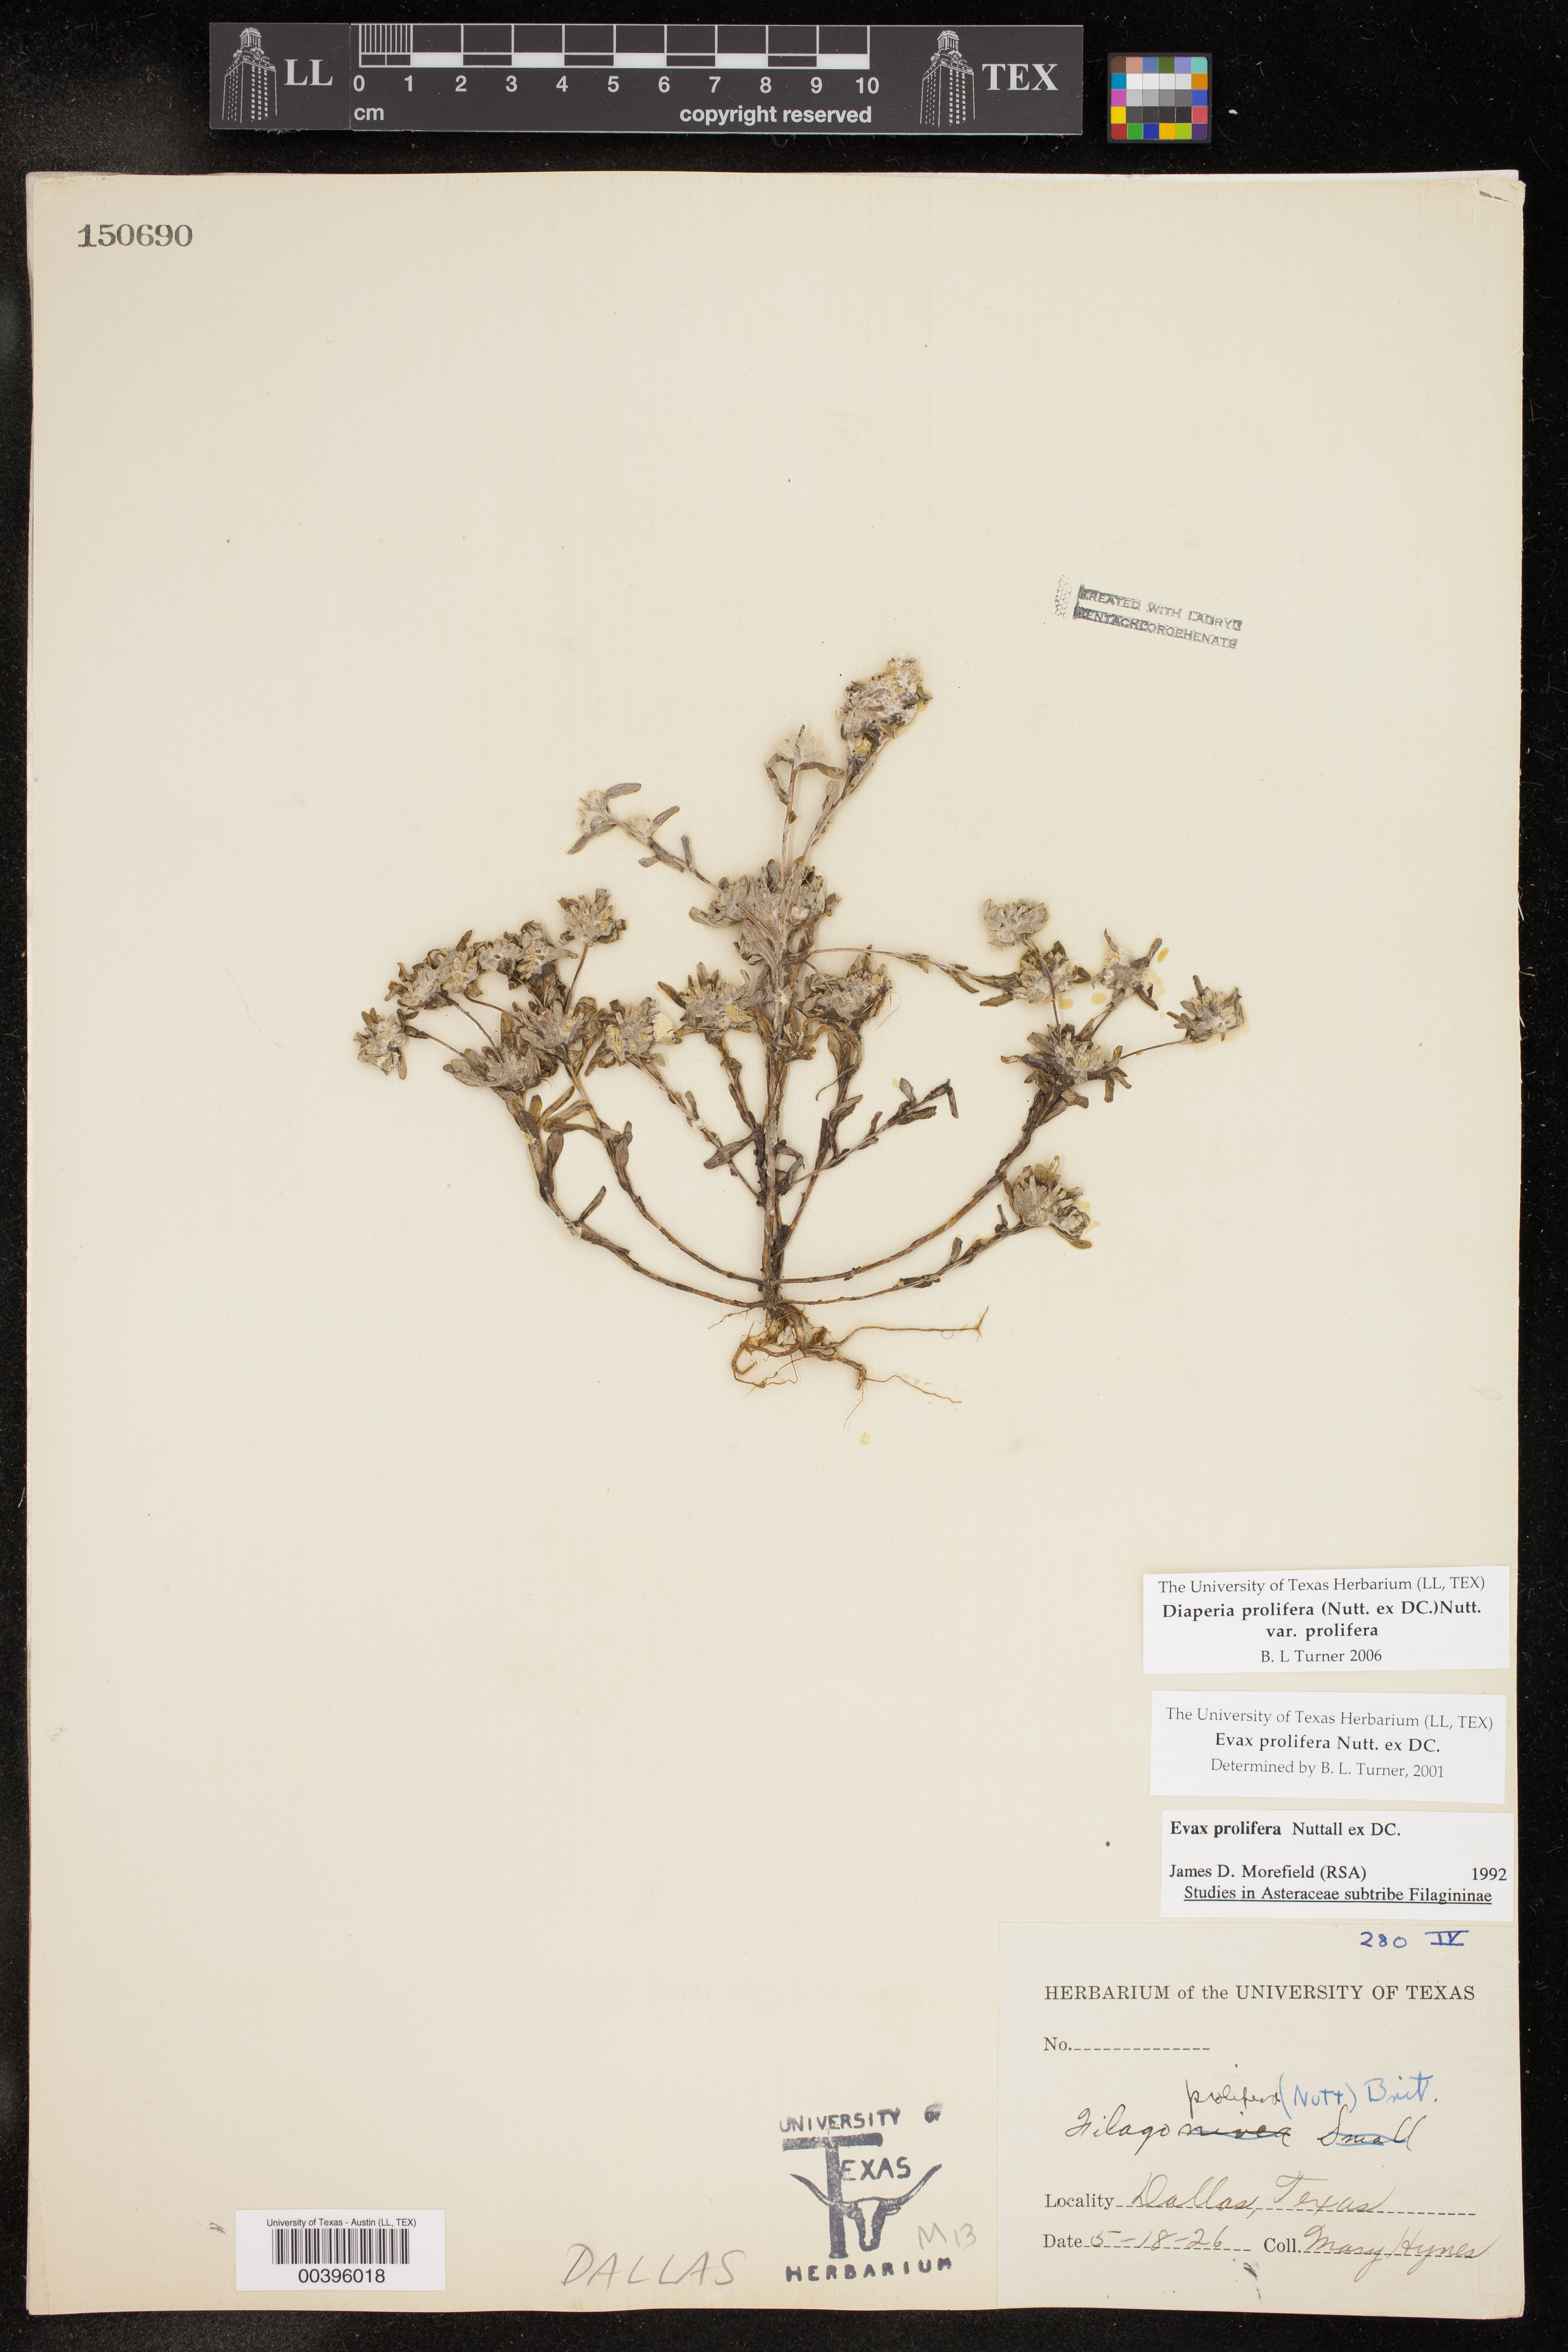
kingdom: Plantae
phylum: Tracheophyta
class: Magnoliopsida
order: Asterales
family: Asteraceae
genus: Diaperia
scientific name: Diaperia prolifera
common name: Big-head rabbit-tobacco
